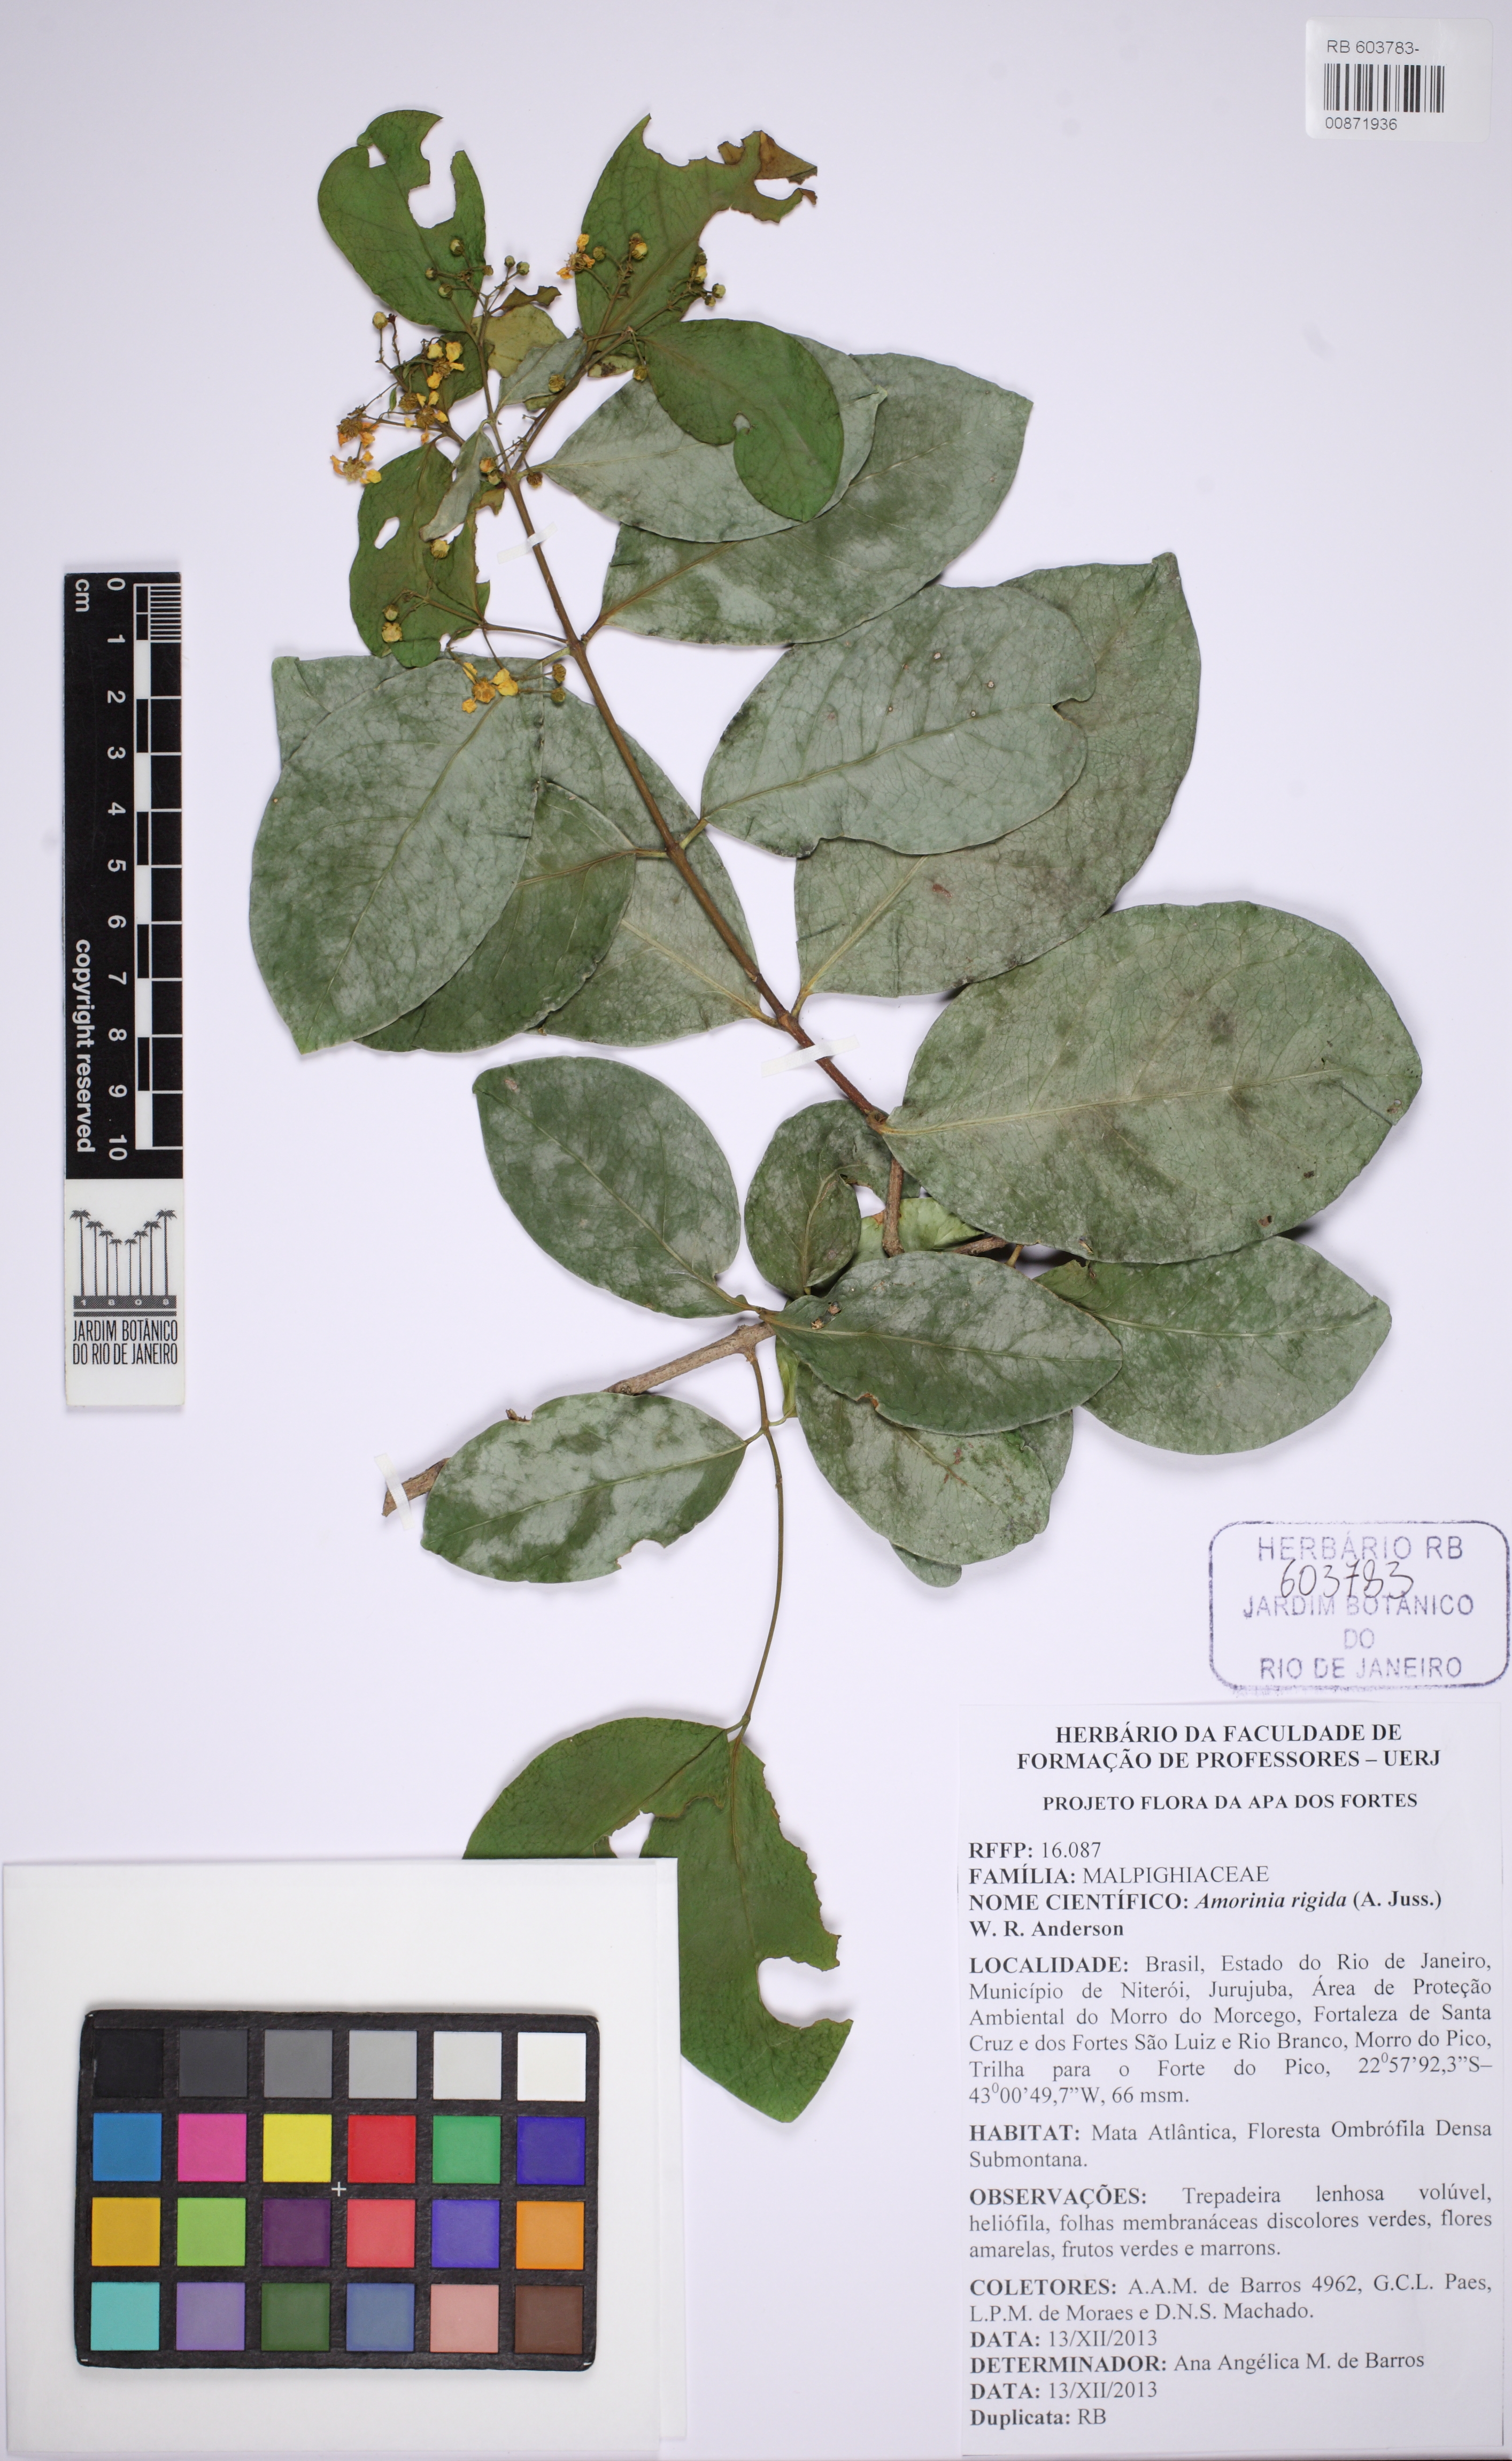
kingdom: Plantae
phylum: Tracheophyta
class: Magnoliopsida
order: Malpighiales
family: Malpighiaceae
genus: Niedenzuella
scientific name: Niedenzuella
